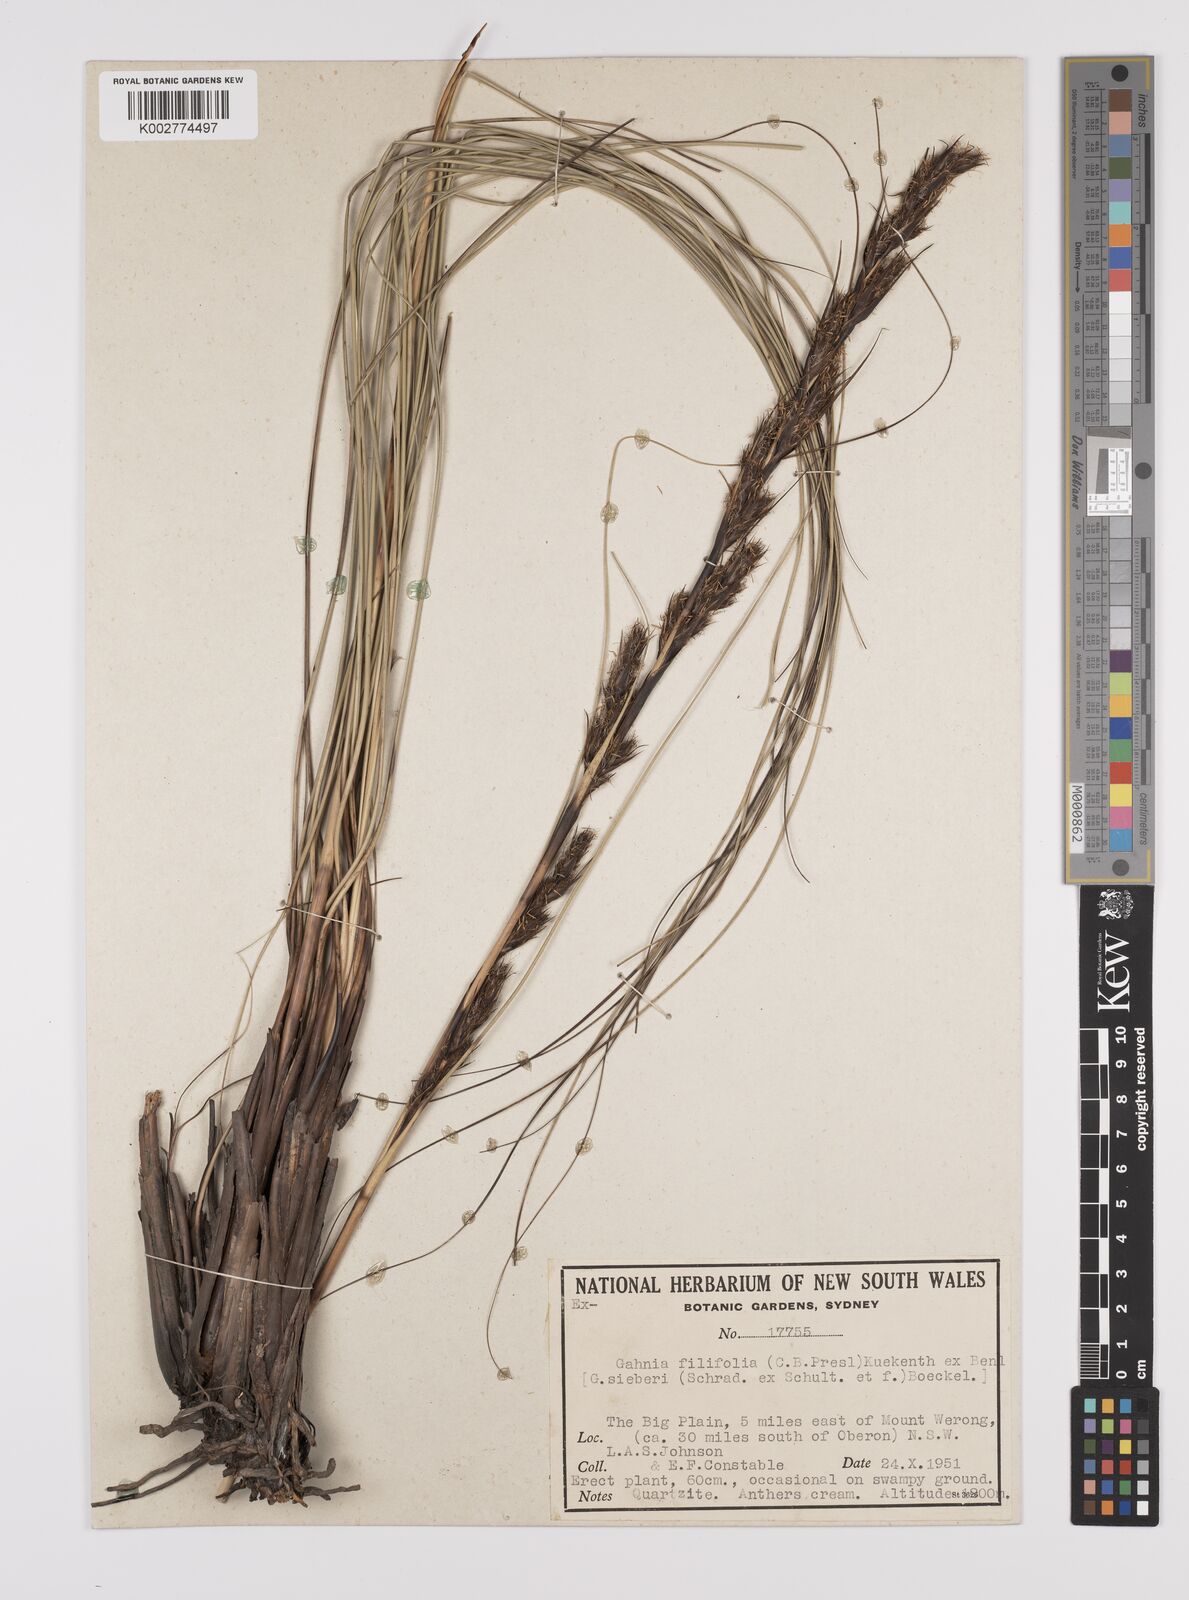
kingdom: Plantae
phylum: Tracheophyta
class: Liliopsida
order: Poales
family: Cyperaceae
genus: Gahnia
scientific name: Gahnia filifolia
